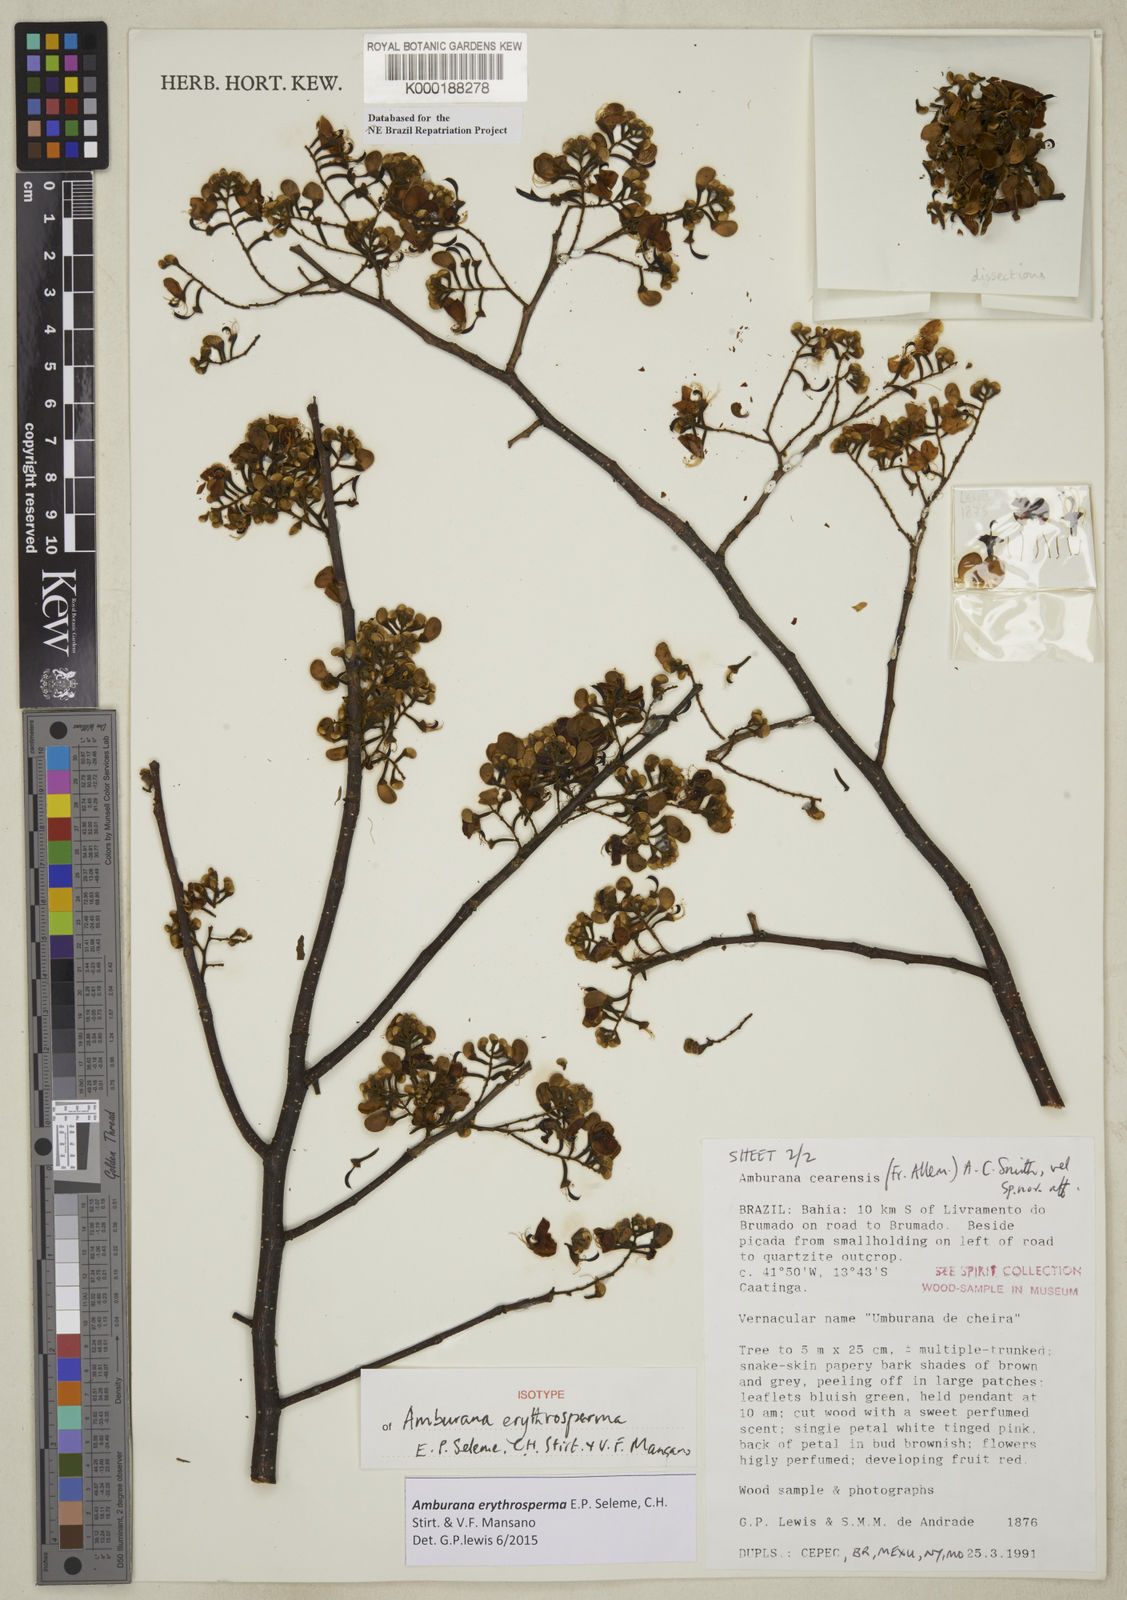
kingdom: Plantae
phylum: Tracheophyta
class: Magnoliopsida
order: Fabales
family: Fabaceae
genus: Amburana
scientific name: Amburana erythrosperma
